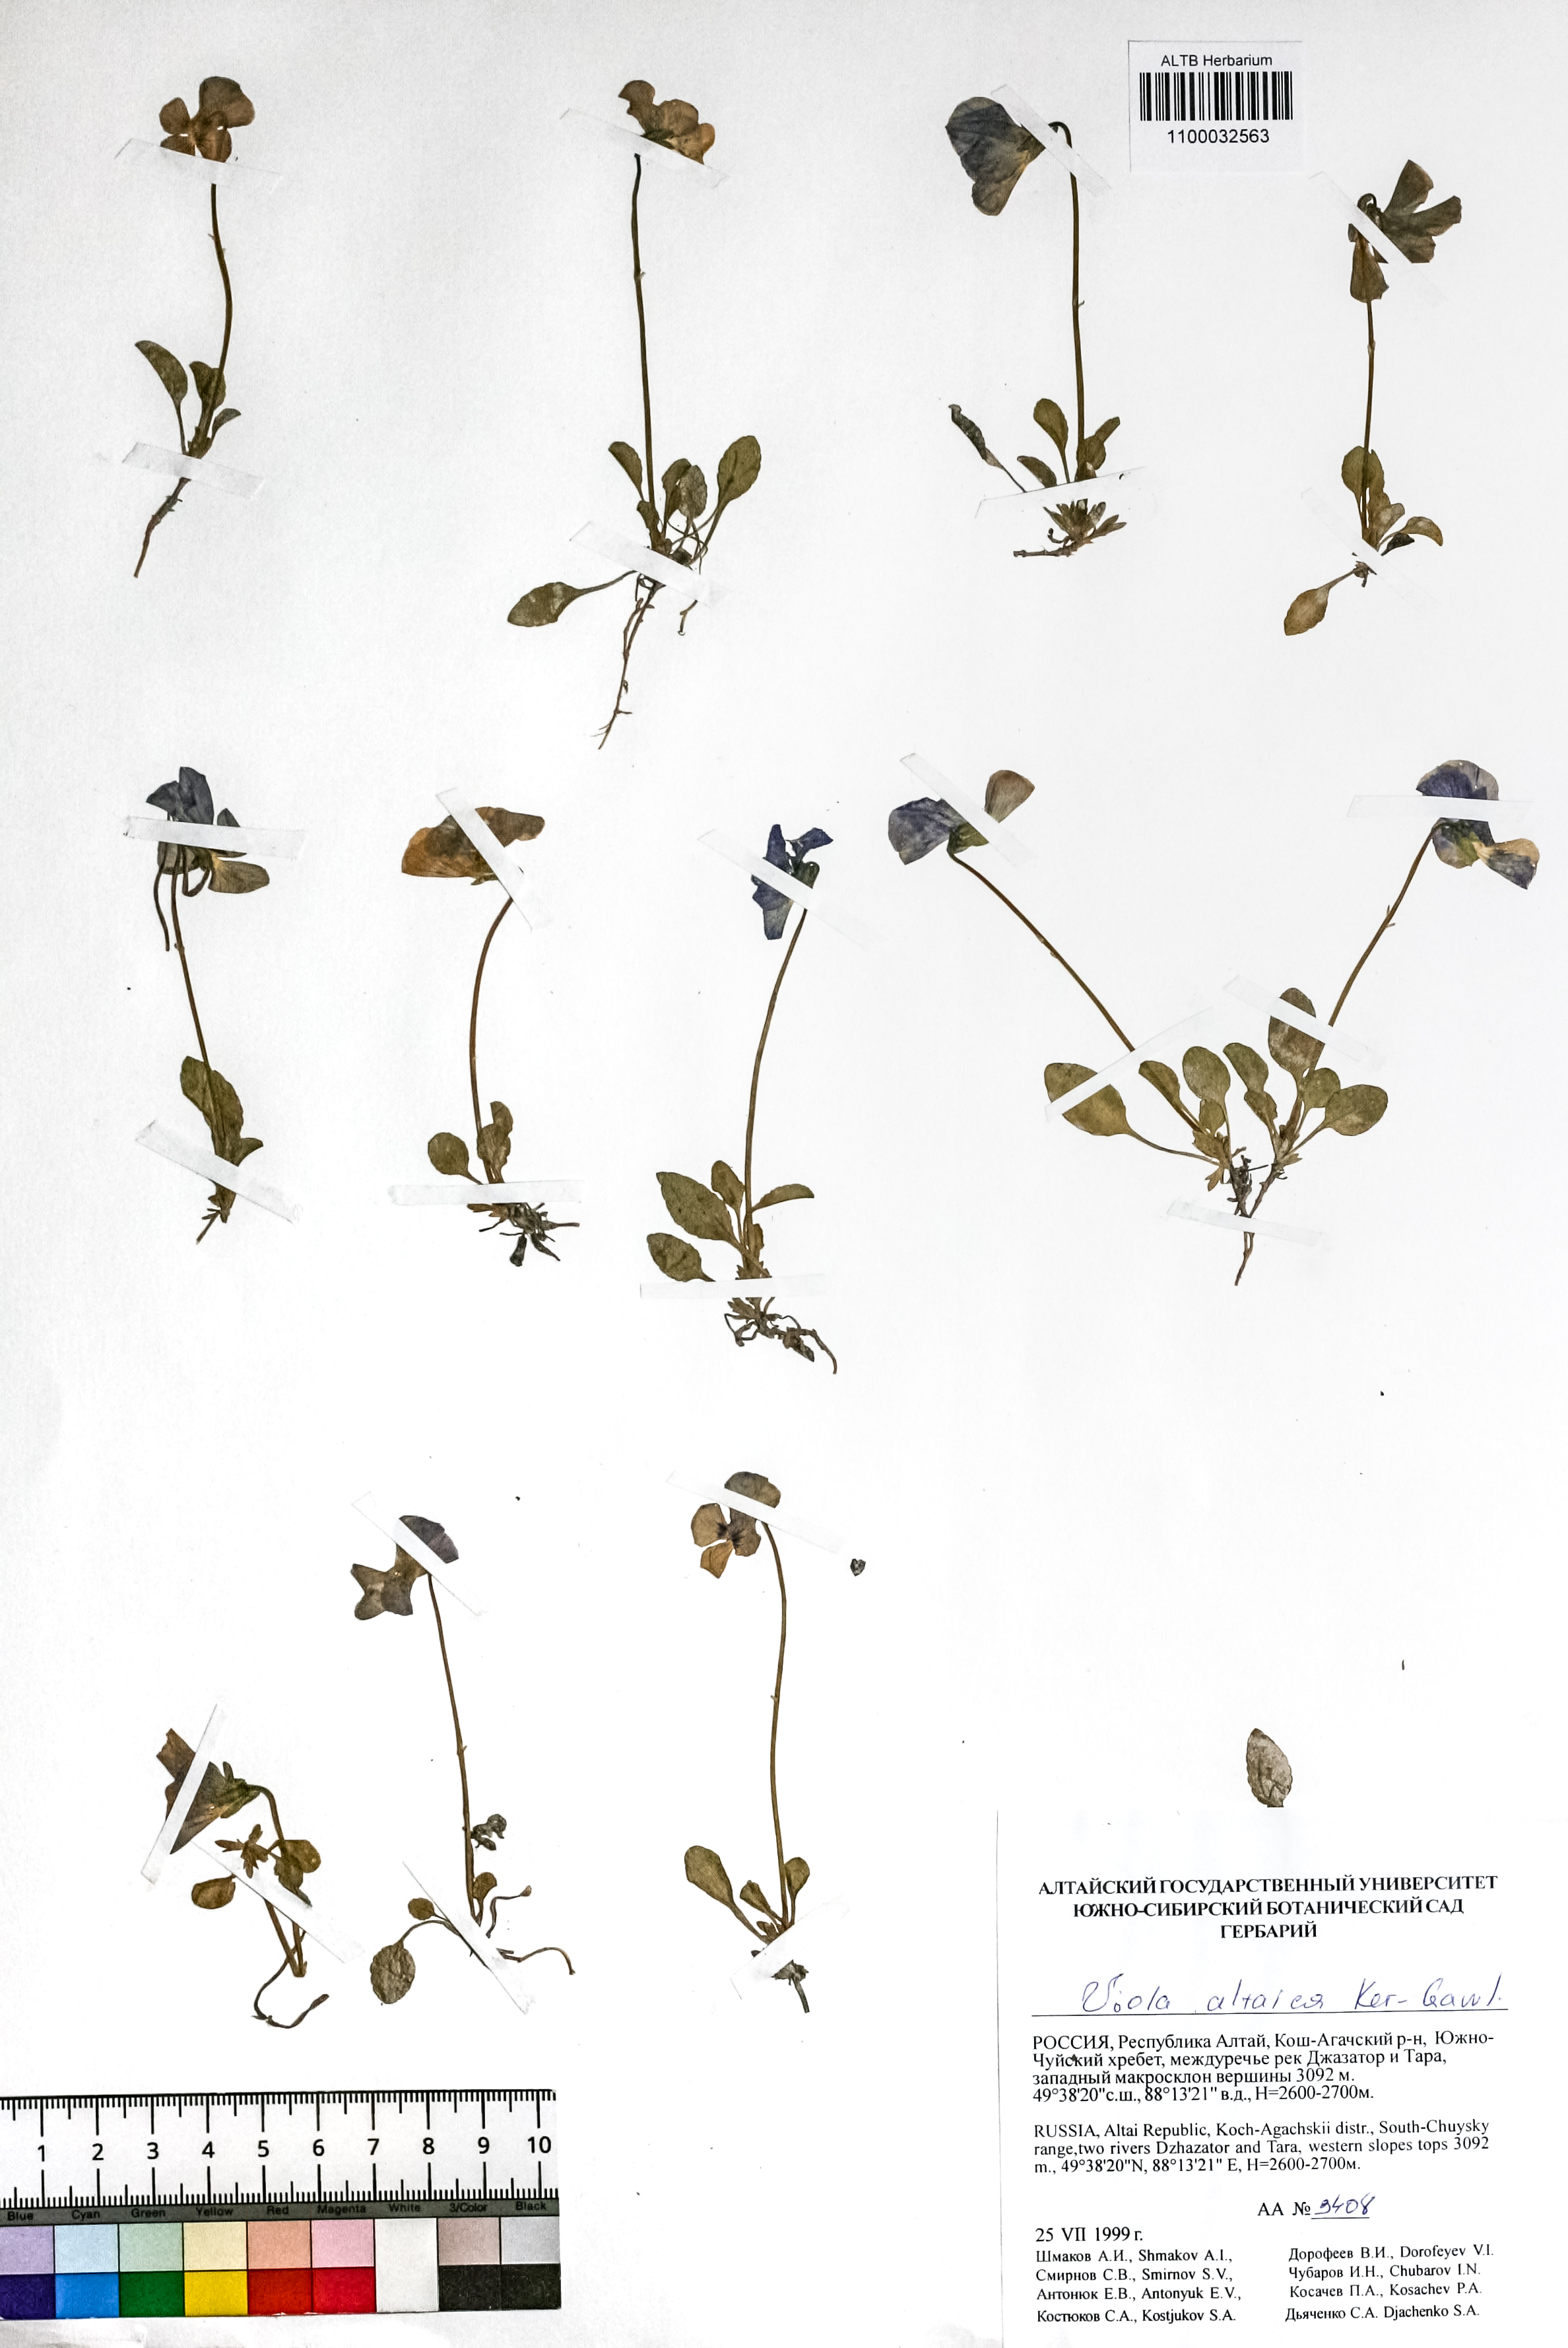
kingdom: Plantae
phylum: Tracheophyta
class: Magnoliopsida
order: Malpighiales
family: Violaceae
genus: Viola
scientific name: Viola altaica
